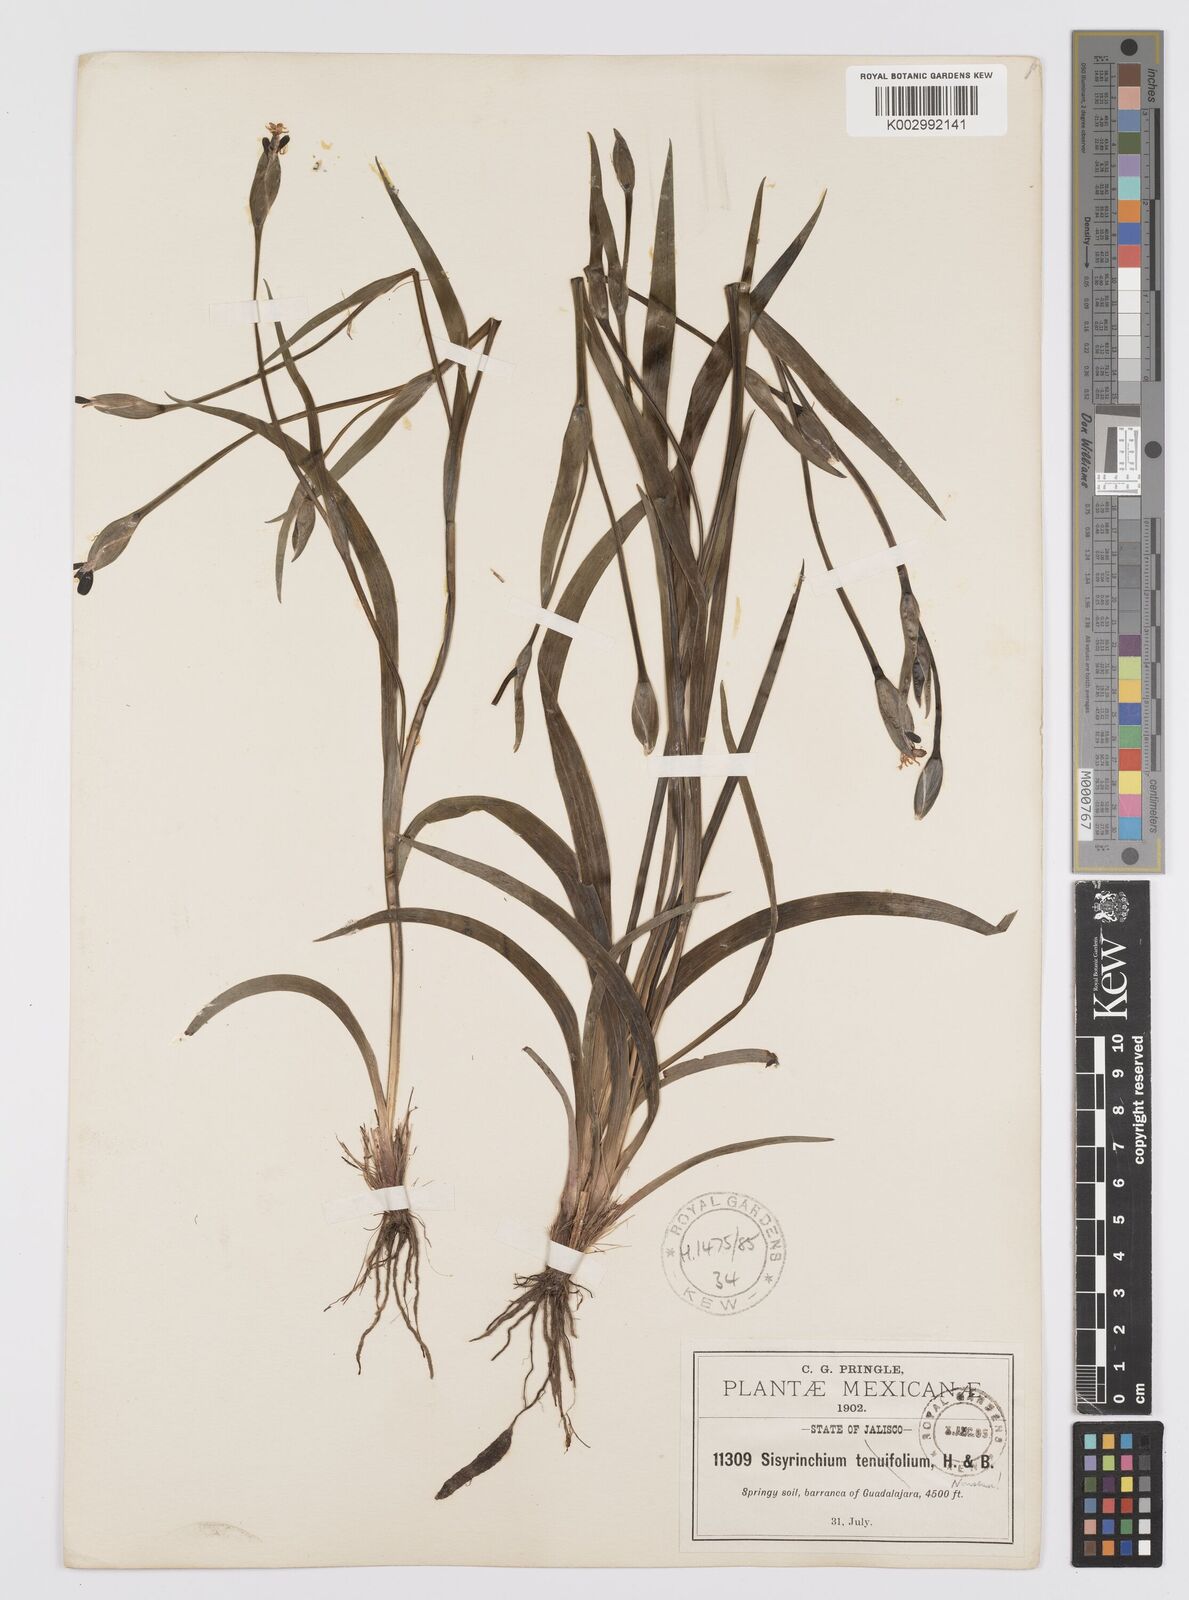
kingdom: Plantae
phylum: Tracheophyta
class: Liliopsida
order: Asparagales
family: Iridaceae
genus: Sisyrinchium
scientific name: Sisyrinchium langloisii
